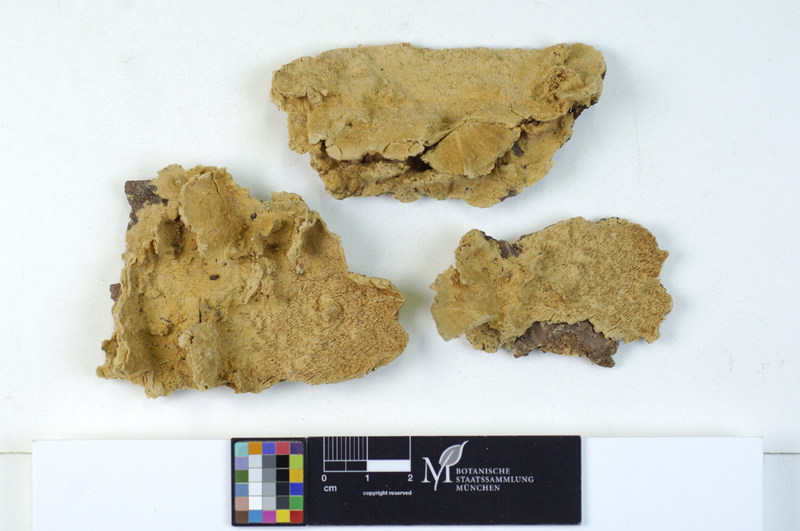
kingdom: Plantae
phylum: Tracheophyta
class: Pinopsida
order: Pinales
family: Pinaceae
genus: Abies
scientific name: Abies
